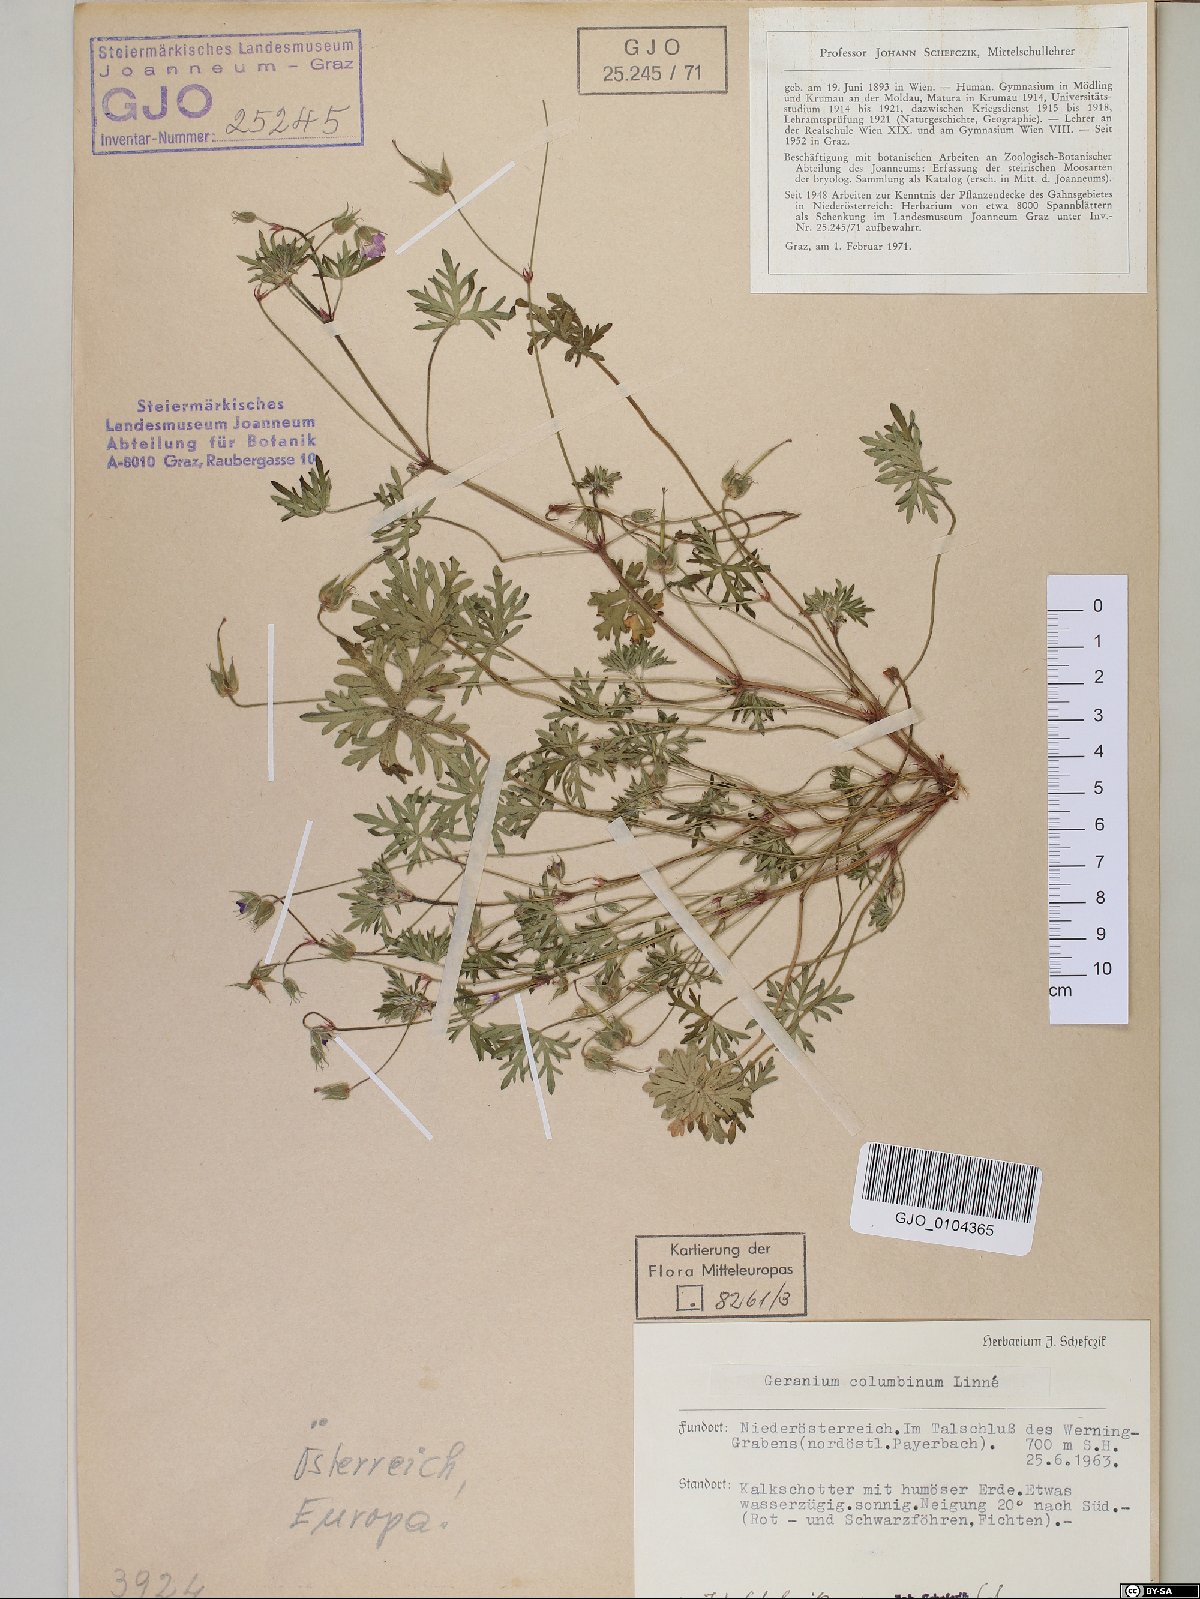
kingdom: Plantae
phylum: Tracheophyta
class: Magnoliopsida
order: Geraniales
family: Geraniaceae
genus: Geranium
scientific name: Geranium columbinum
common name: Long-stalked crane's-bill
